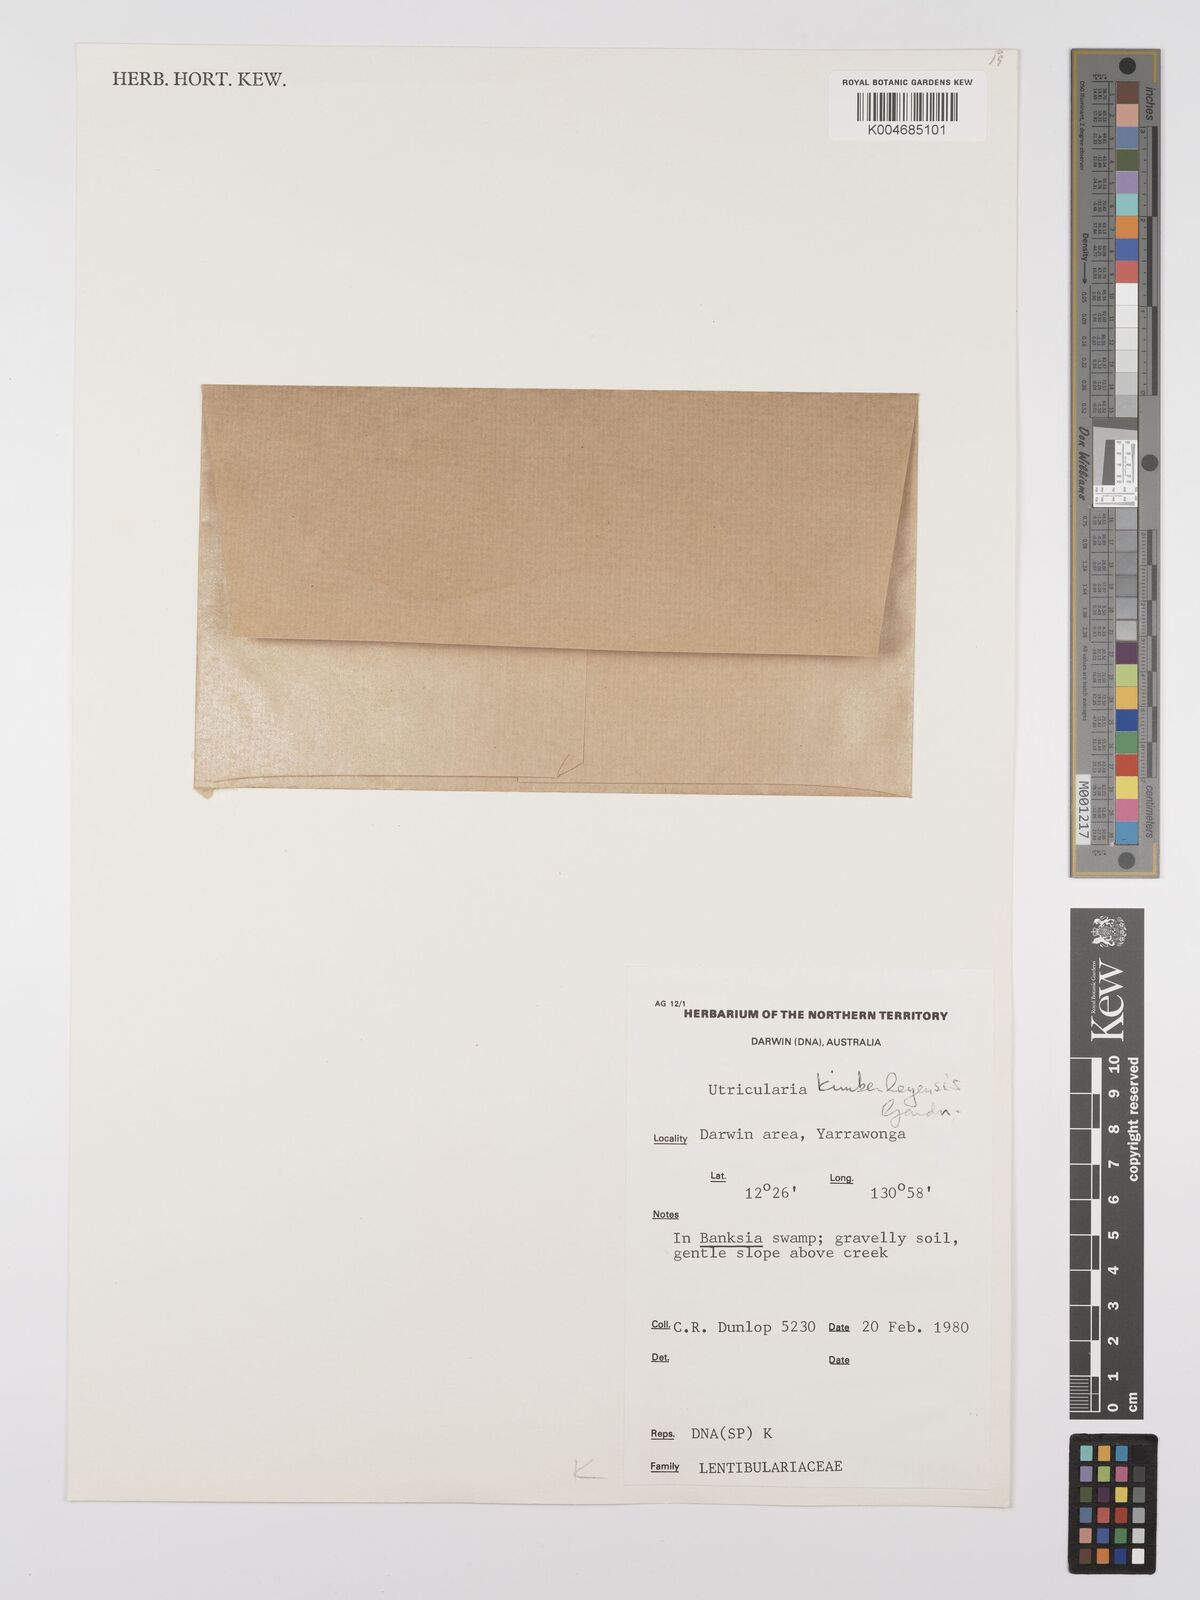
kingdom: Plantae
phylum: Tracheophyta
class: Magnoliopsida
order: Lamiales
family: Lentibulariaceae
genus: Utricularia
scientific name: Utricularia kimberleyensis
